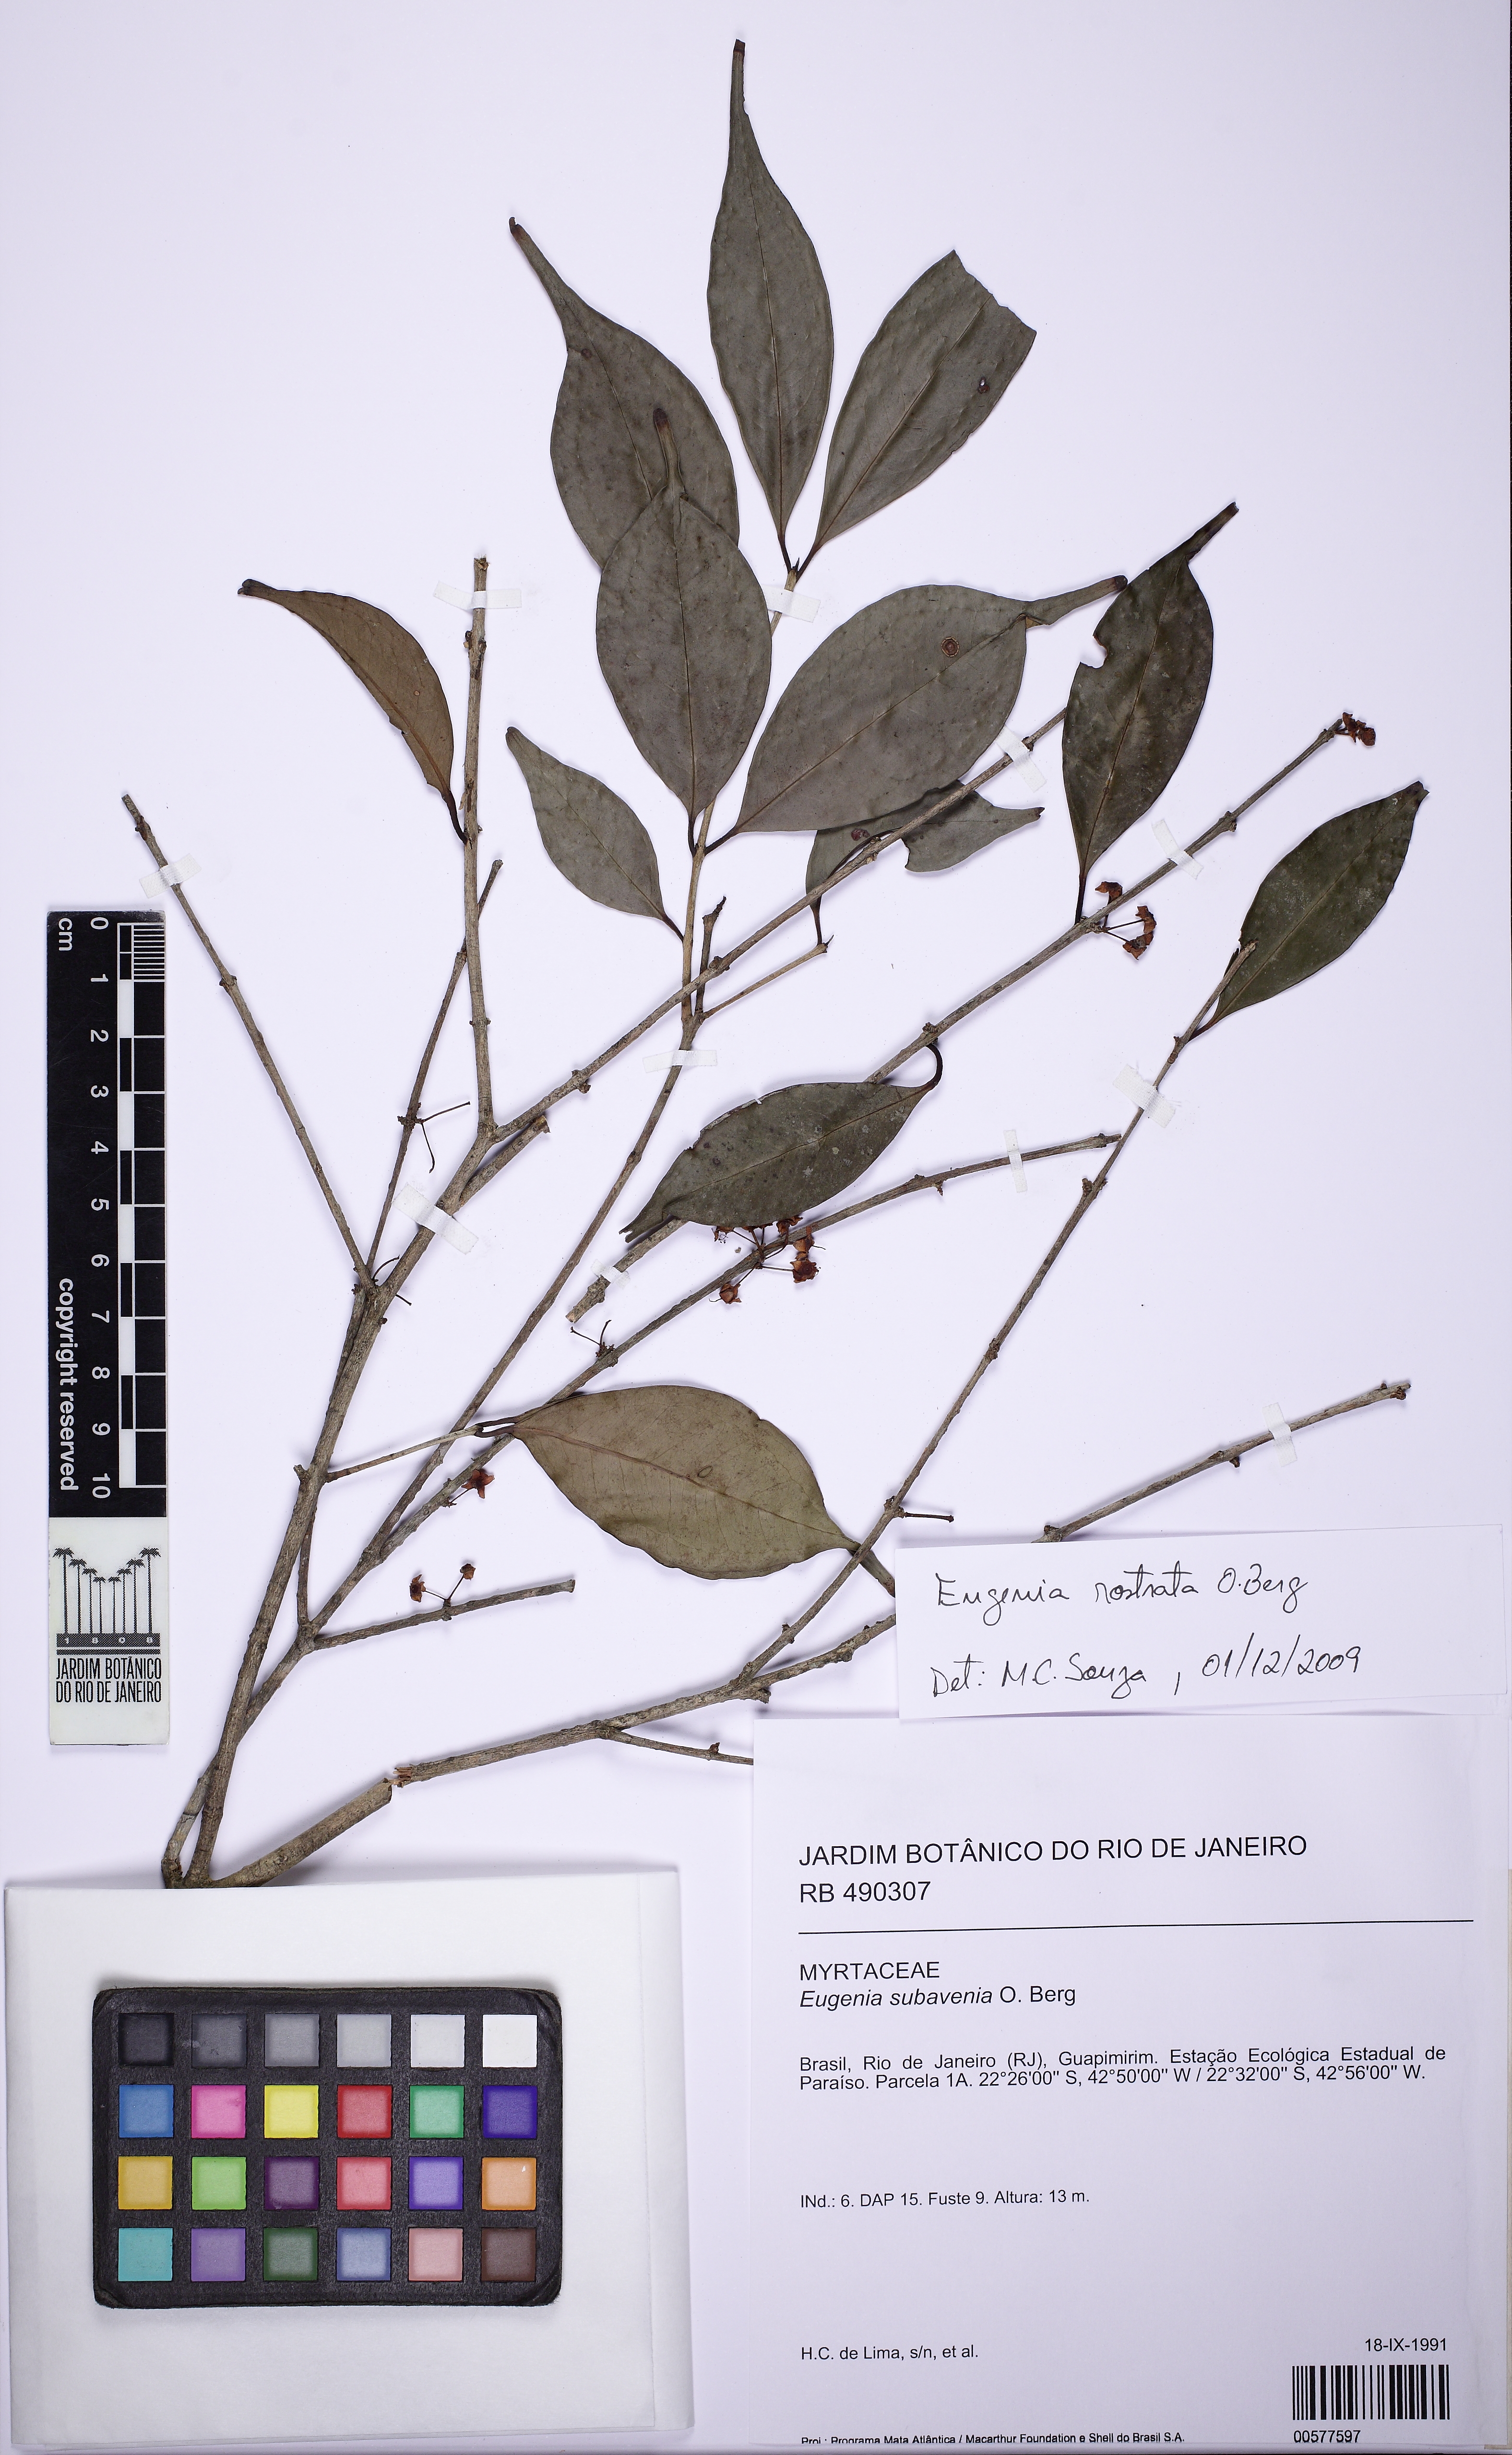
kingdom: Plantae
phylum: Tracheophyta
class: Magnoliopsida
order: Myrtales
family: Myrtaceae
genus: Eugenia
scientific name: Eugenia rostrata
